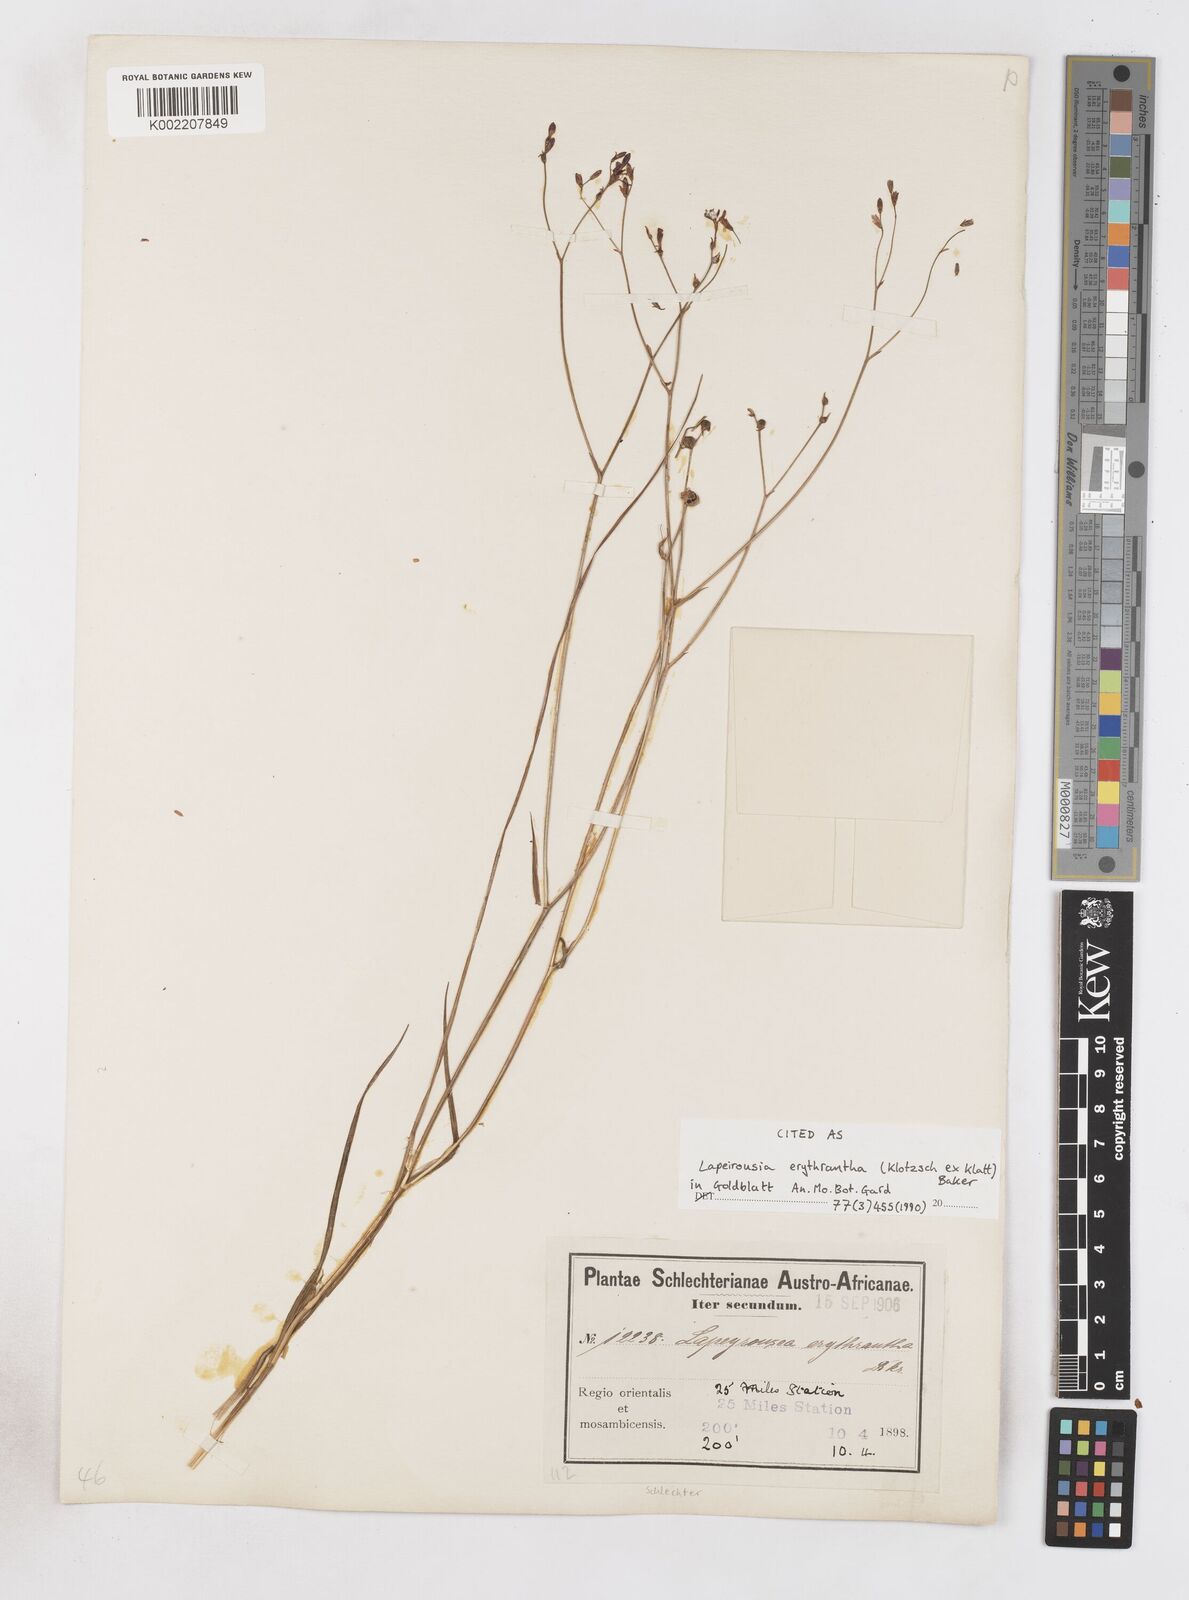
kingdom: Plantae
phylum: Tracheophyta
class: Liliopsida
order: Asparagales
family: Iridaceae
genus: Afrosolen
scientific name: Afrosolen erythranthus
